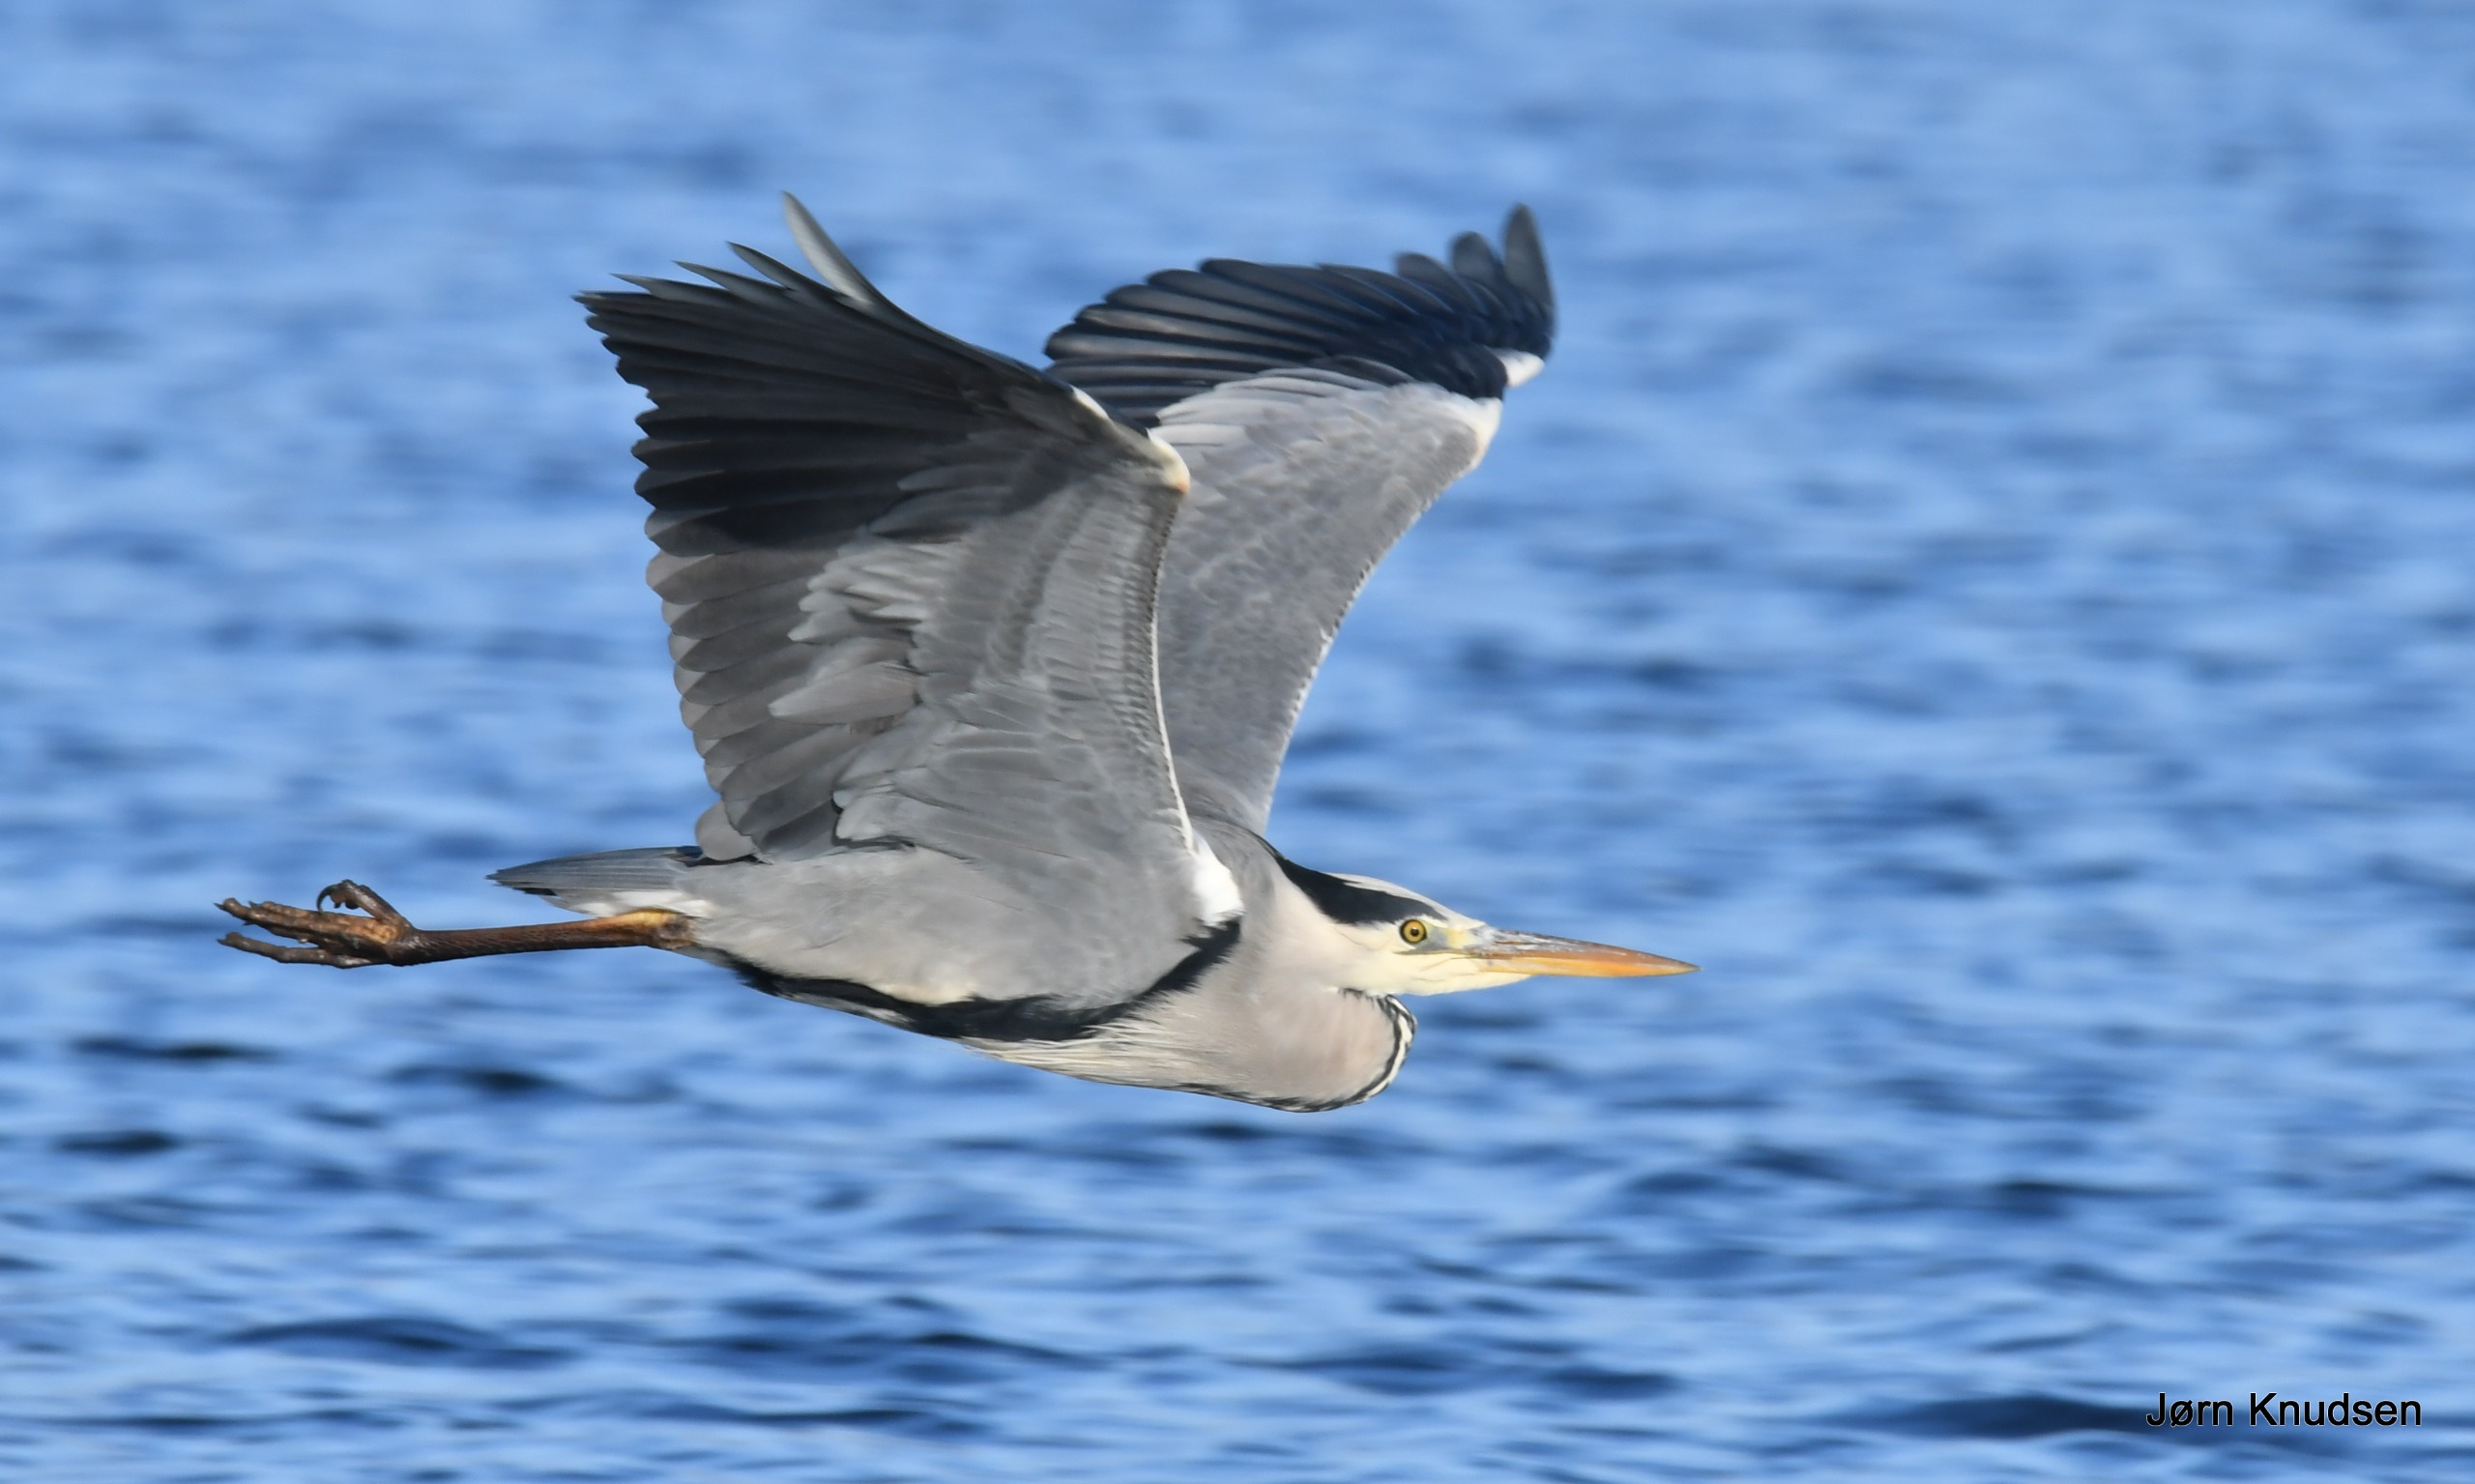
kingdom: Animalia
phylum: Chordata
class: Aves
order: Pelecaniformes
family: Ardeidae
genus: Ardea
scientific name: Ardea cinerea
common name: Fiskehejre
